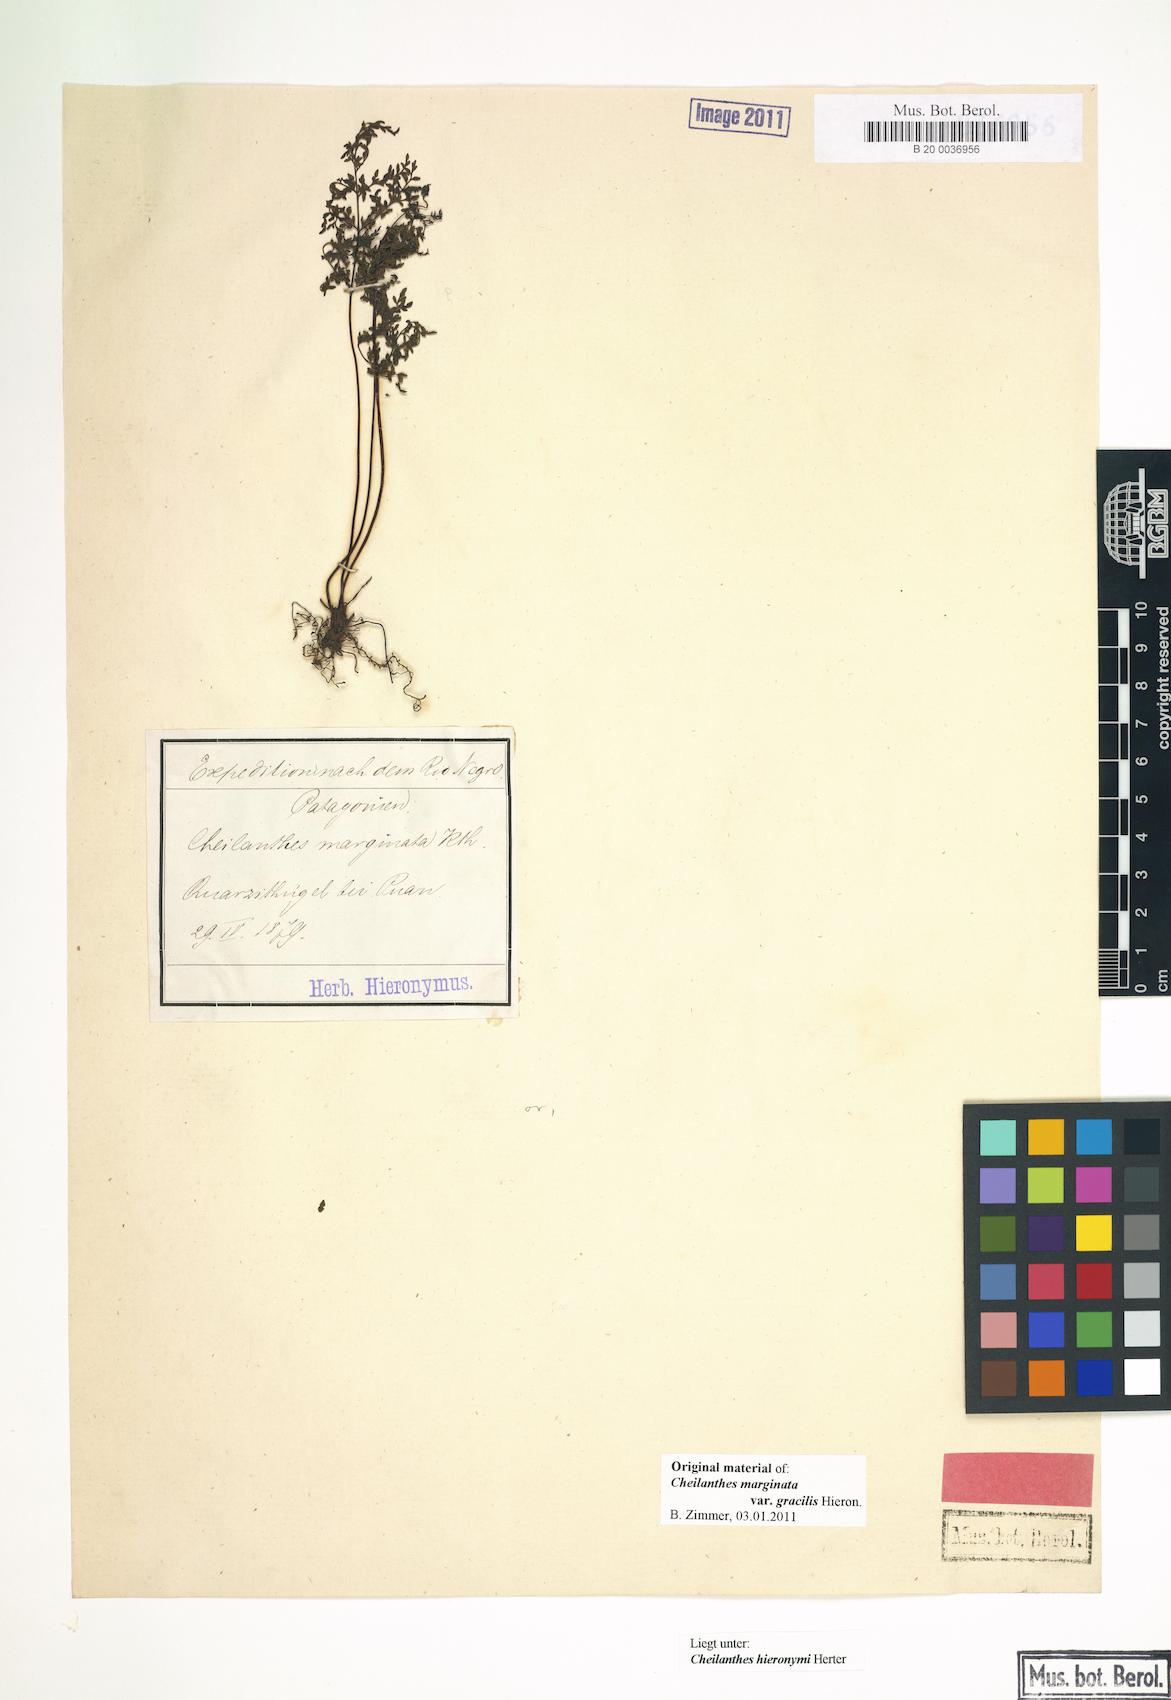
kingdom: Plantae
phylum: Tracheophyta
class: Polypodiopsida
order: Polypodiales
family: Pteridaceae
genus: Cheilanthes
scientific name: Cheilanthes hieronymi
